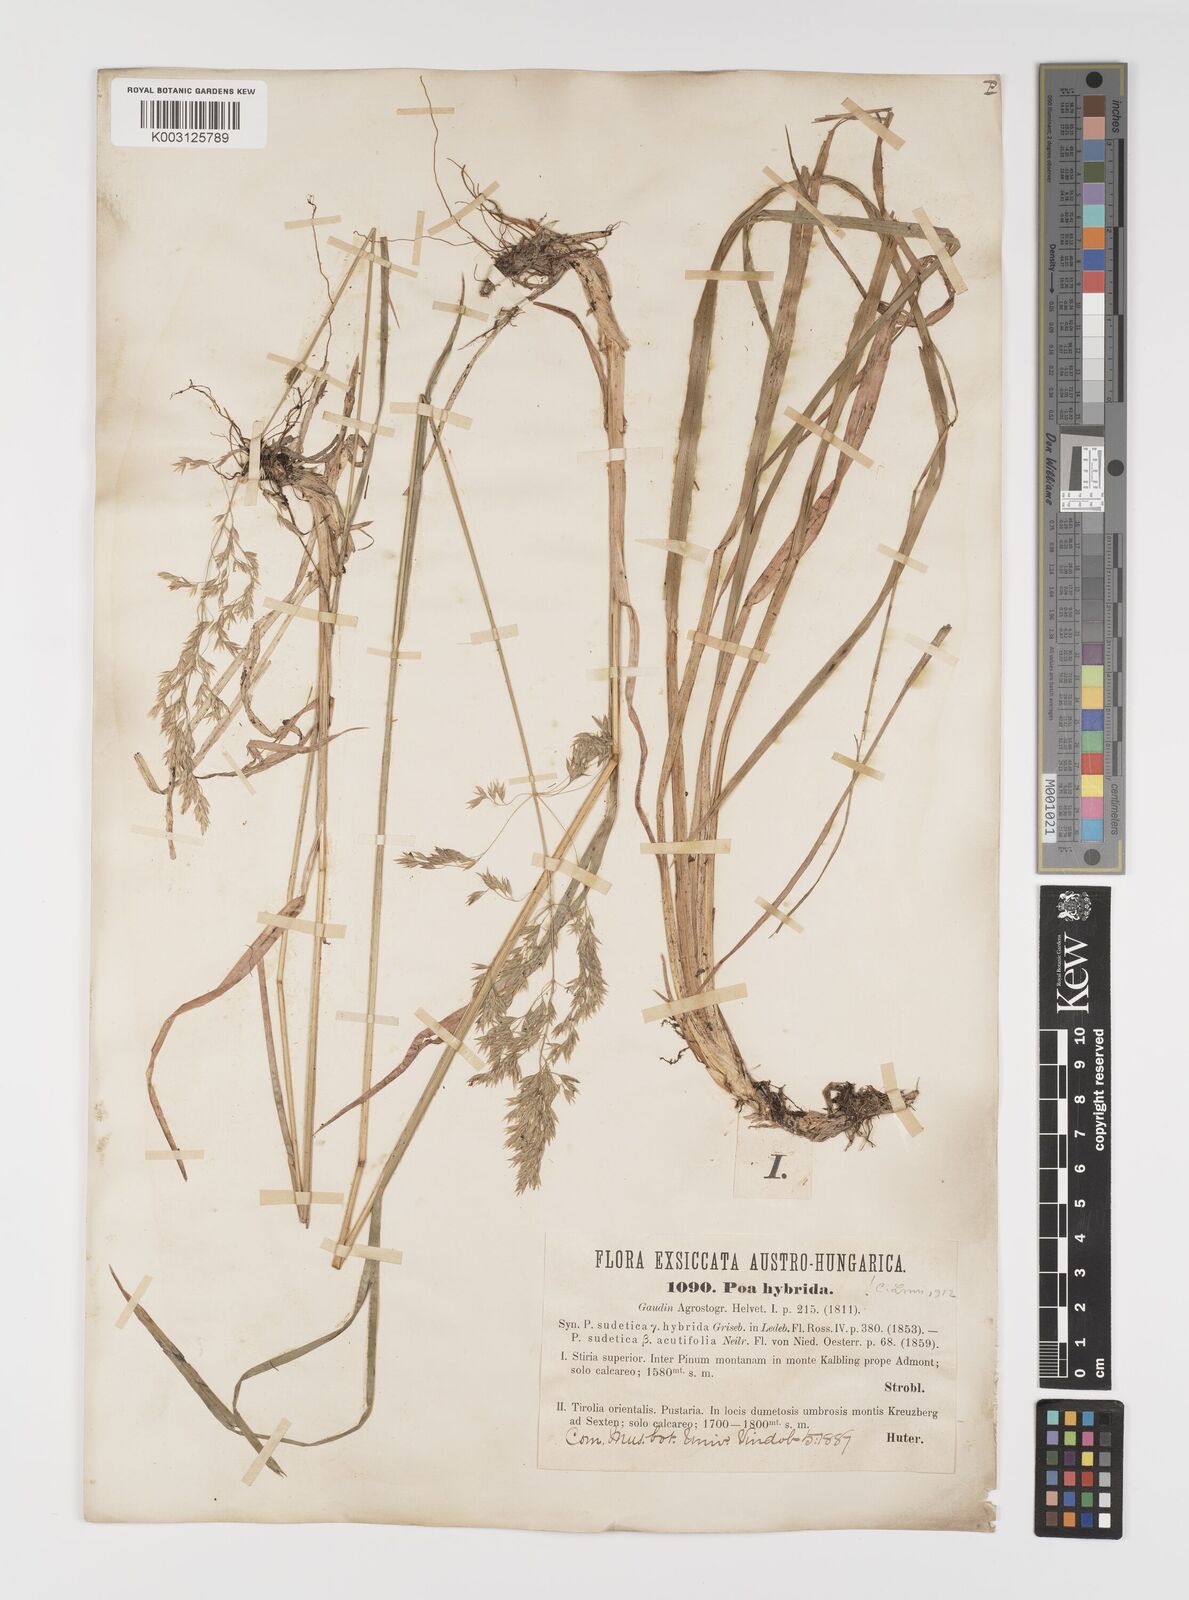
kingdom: Plantae
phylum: Tracheophyta
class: Liliopsida
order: Poales
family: Poaceae
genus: Poa
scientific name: Poa hybrida
